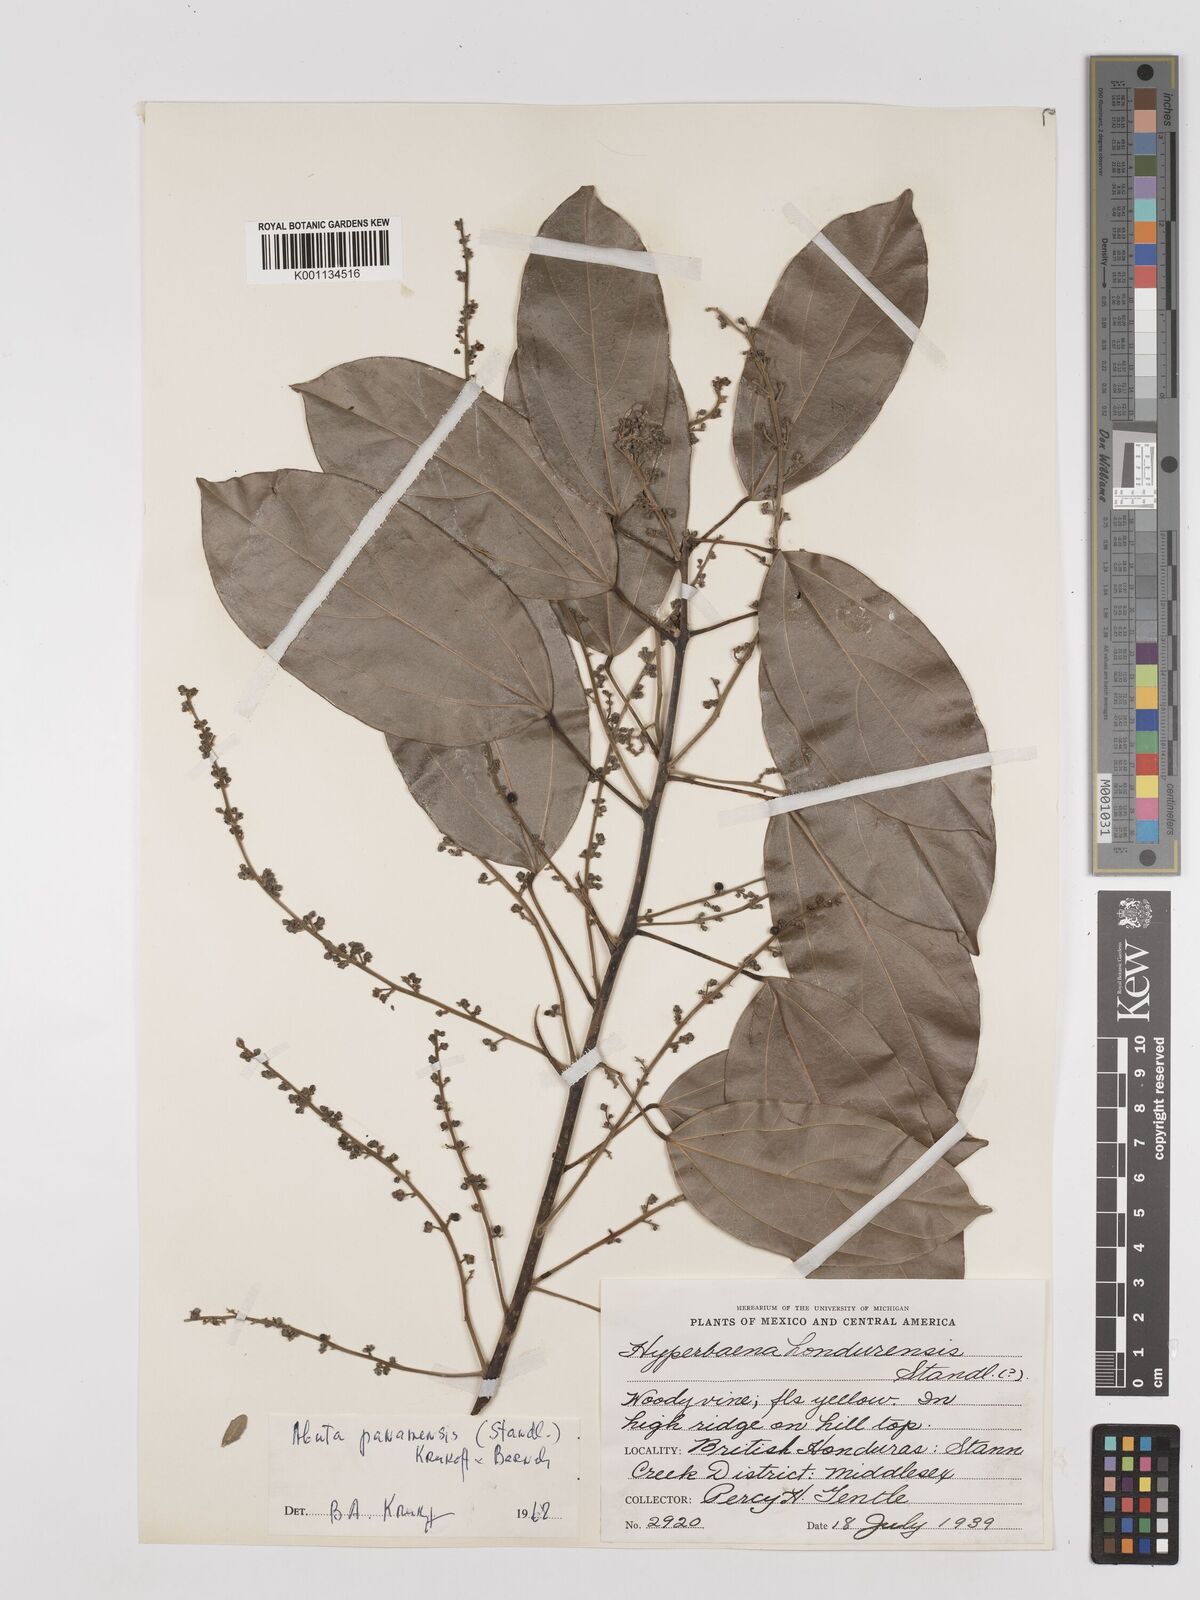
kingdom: Plantae
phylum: Tracheophyta
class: Magnoliopsida
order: Ranunculales
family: Menispermaceae
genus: Abuta
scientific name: Abuta panamensis
